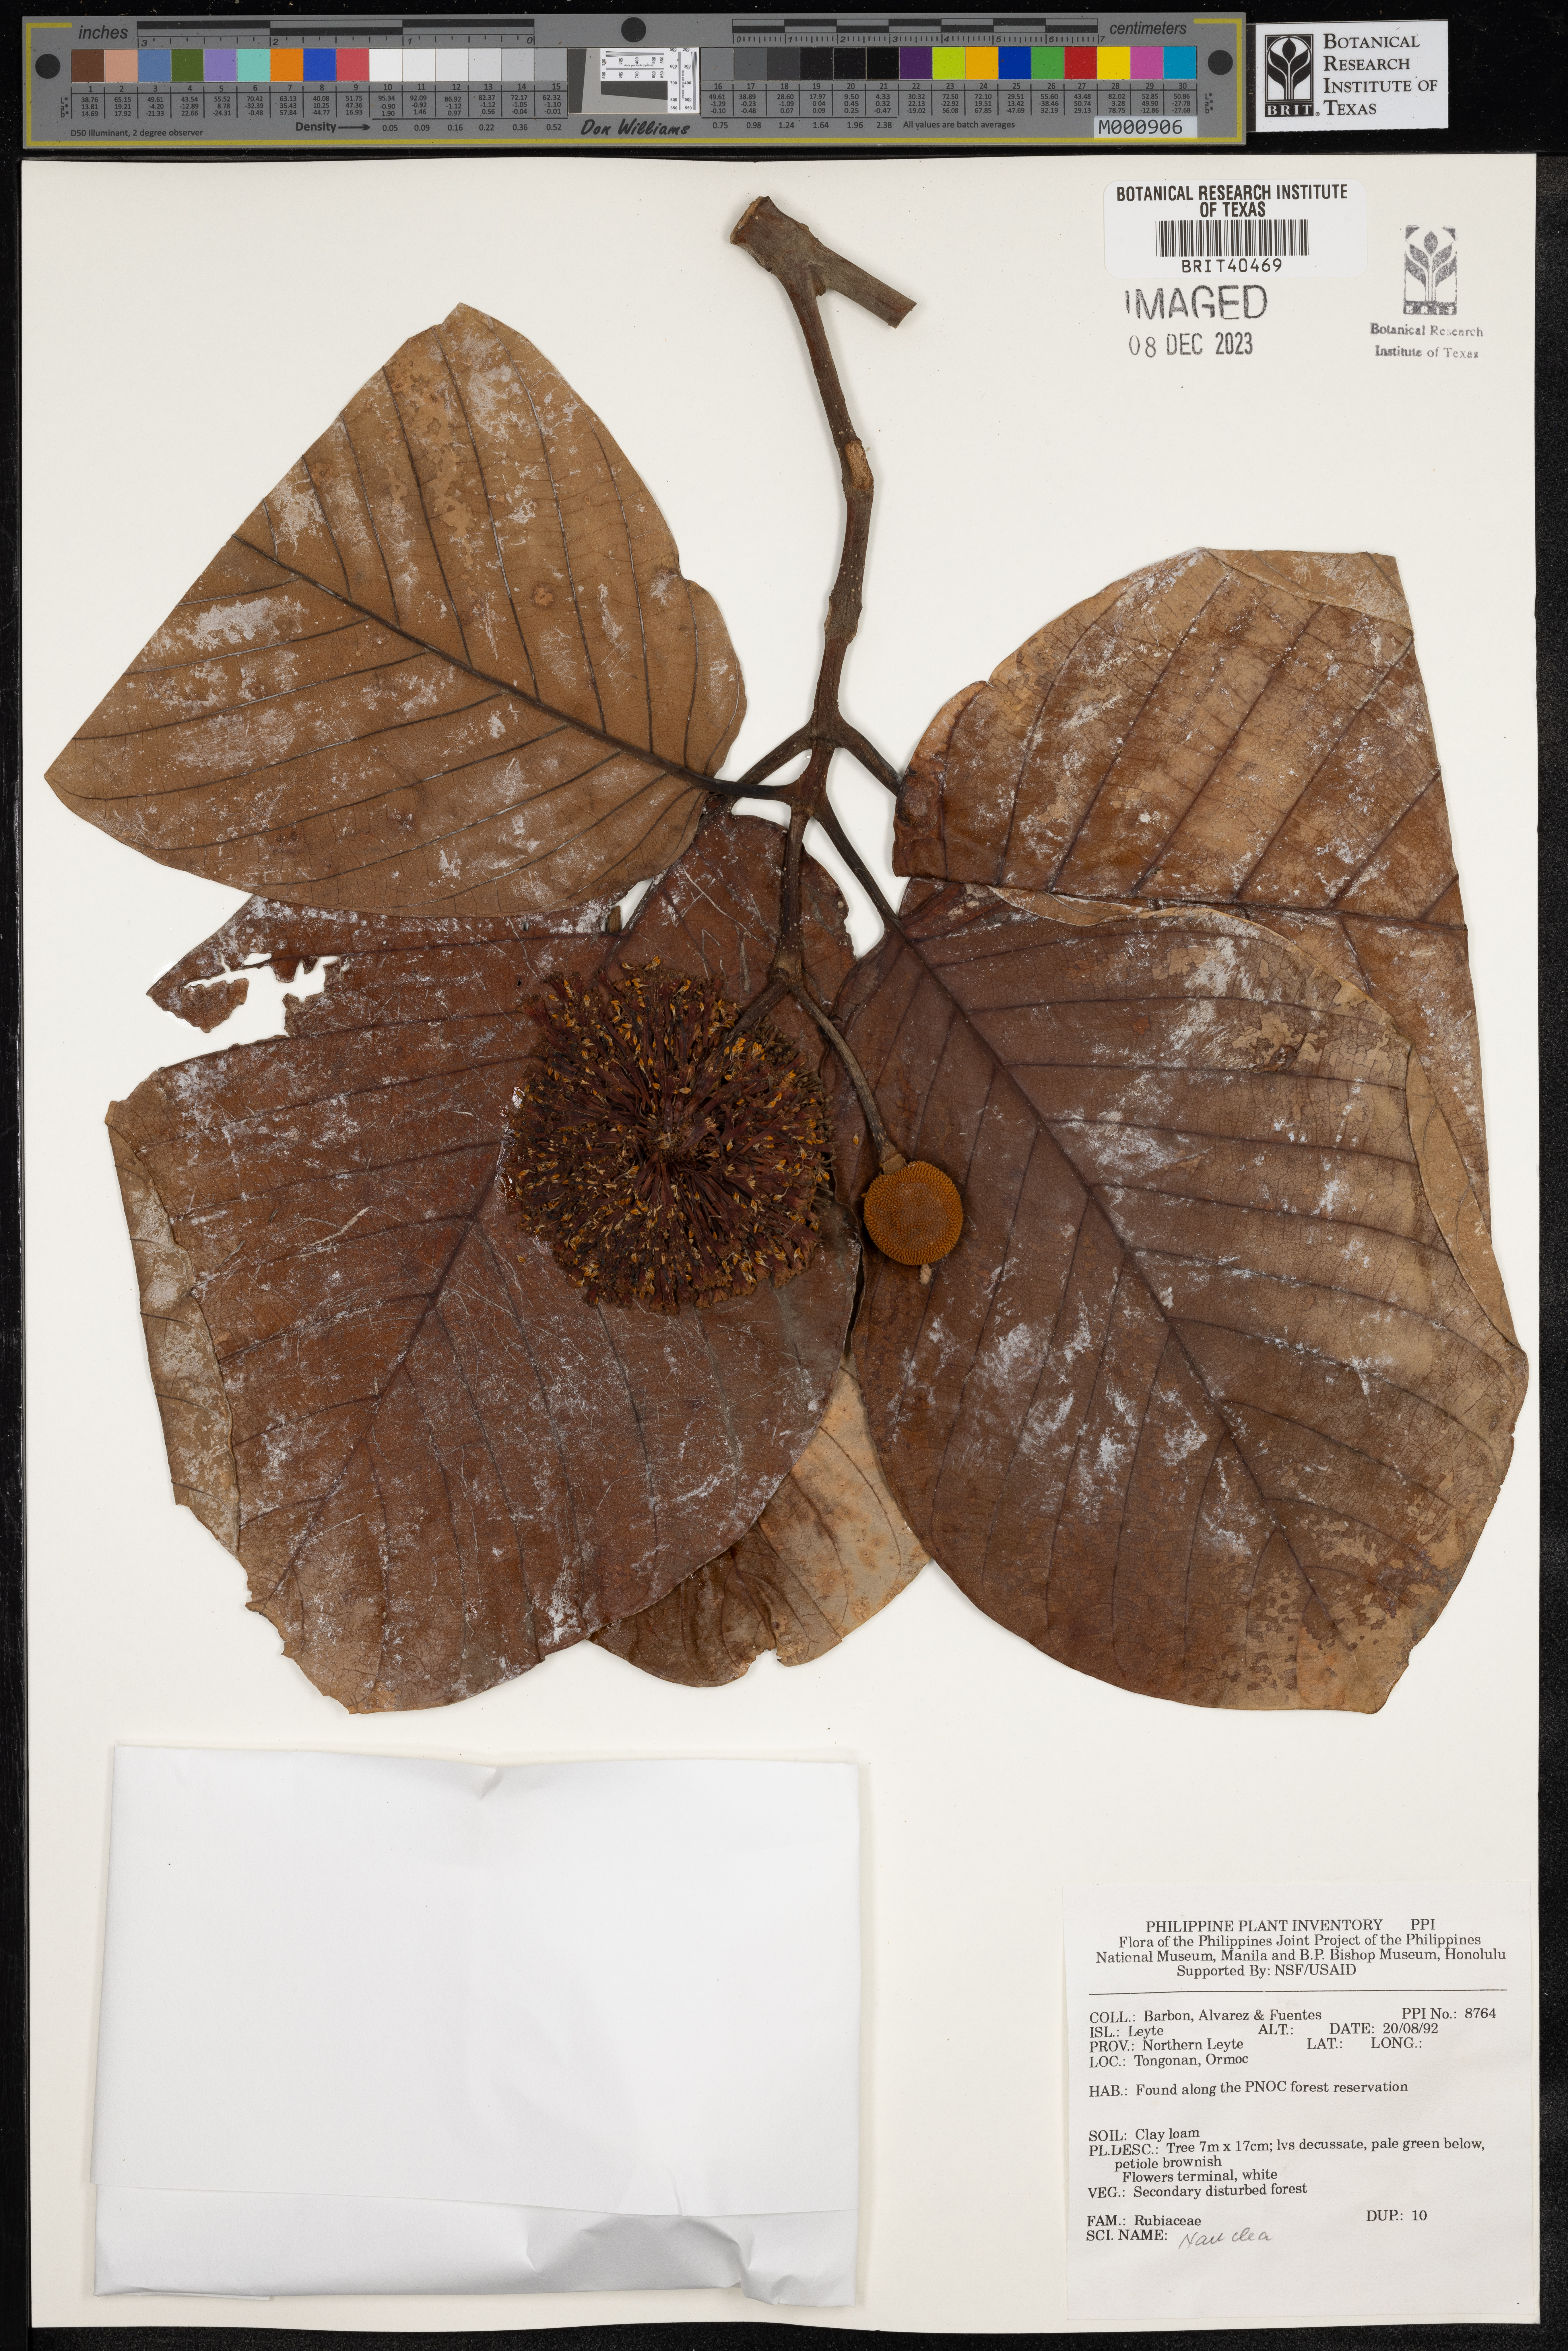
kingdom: Plantae
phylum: Tracheophyta
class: Magnoliopsida
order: Gentianales
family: Rubiaceae
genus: Nauclea
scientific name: Nauclea
